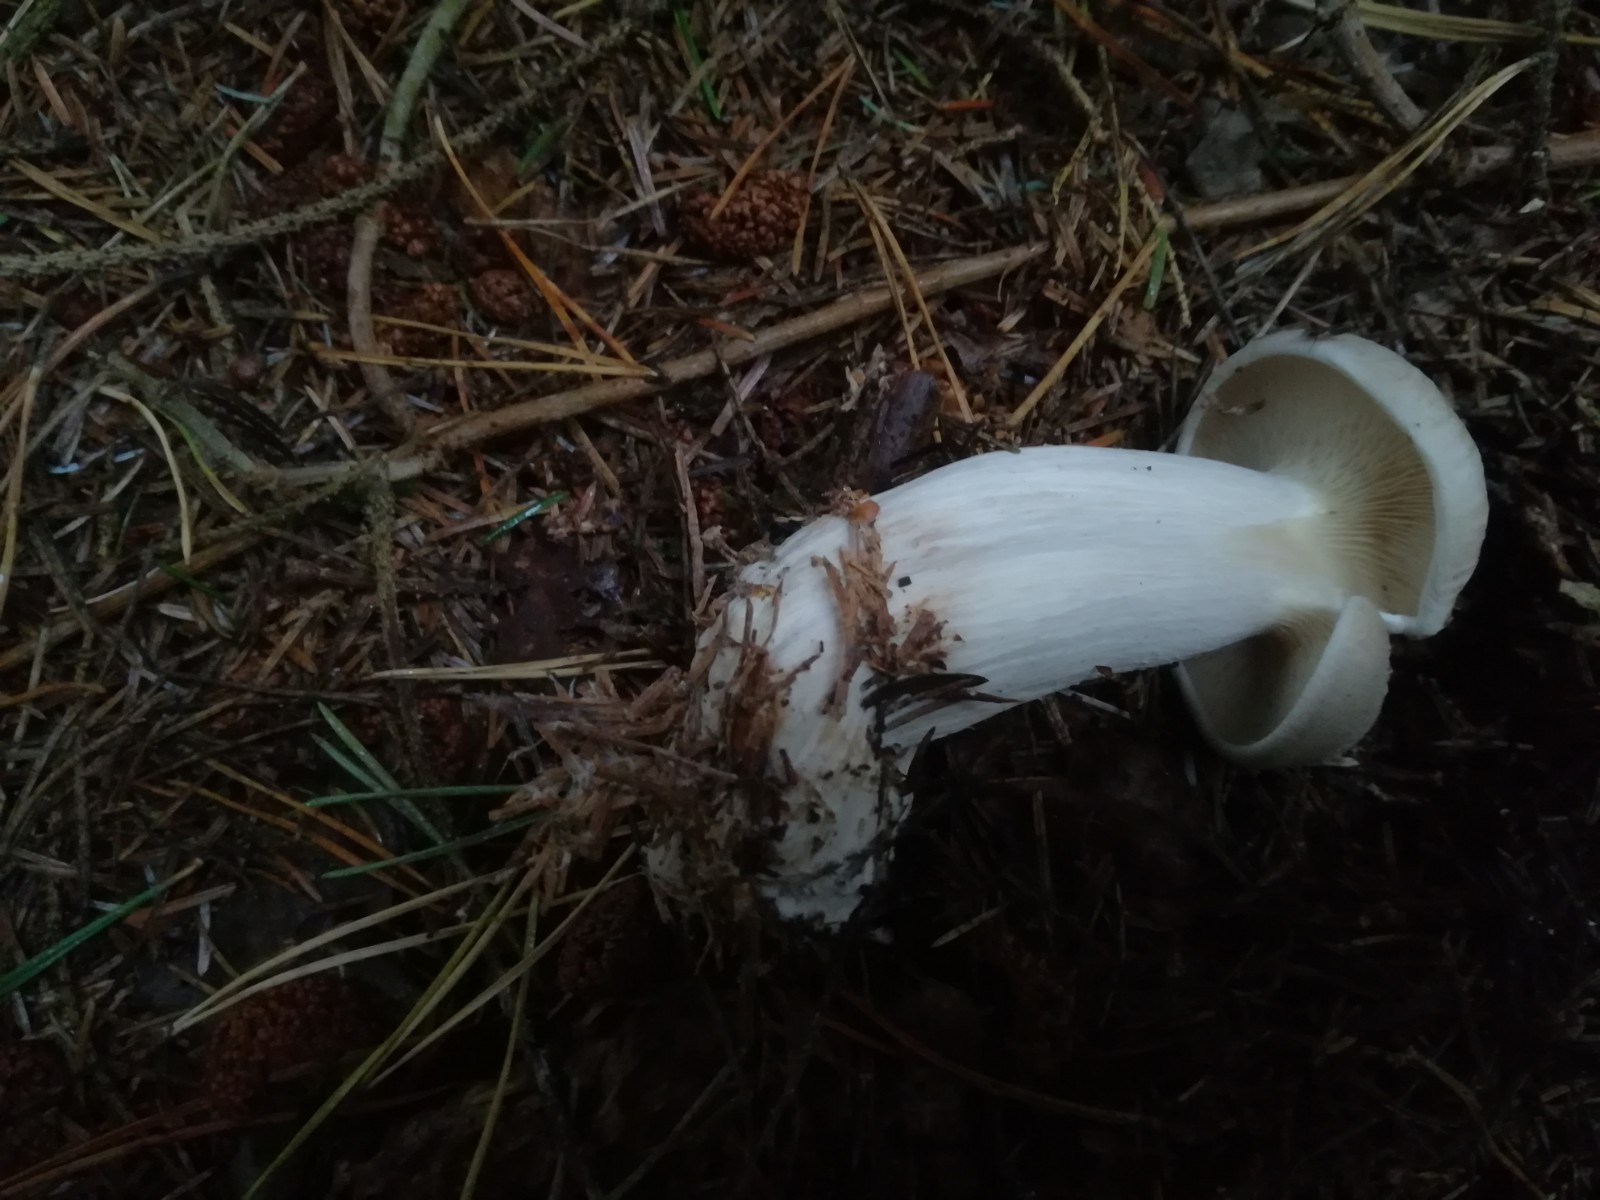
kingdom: Fungi
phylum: Basidiomycota
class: Agaricomycetes
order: Agaricales
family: Tricholomataceae
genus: Clitocybe
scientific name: Clitocybe nebularis
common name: tåge-tragthat
